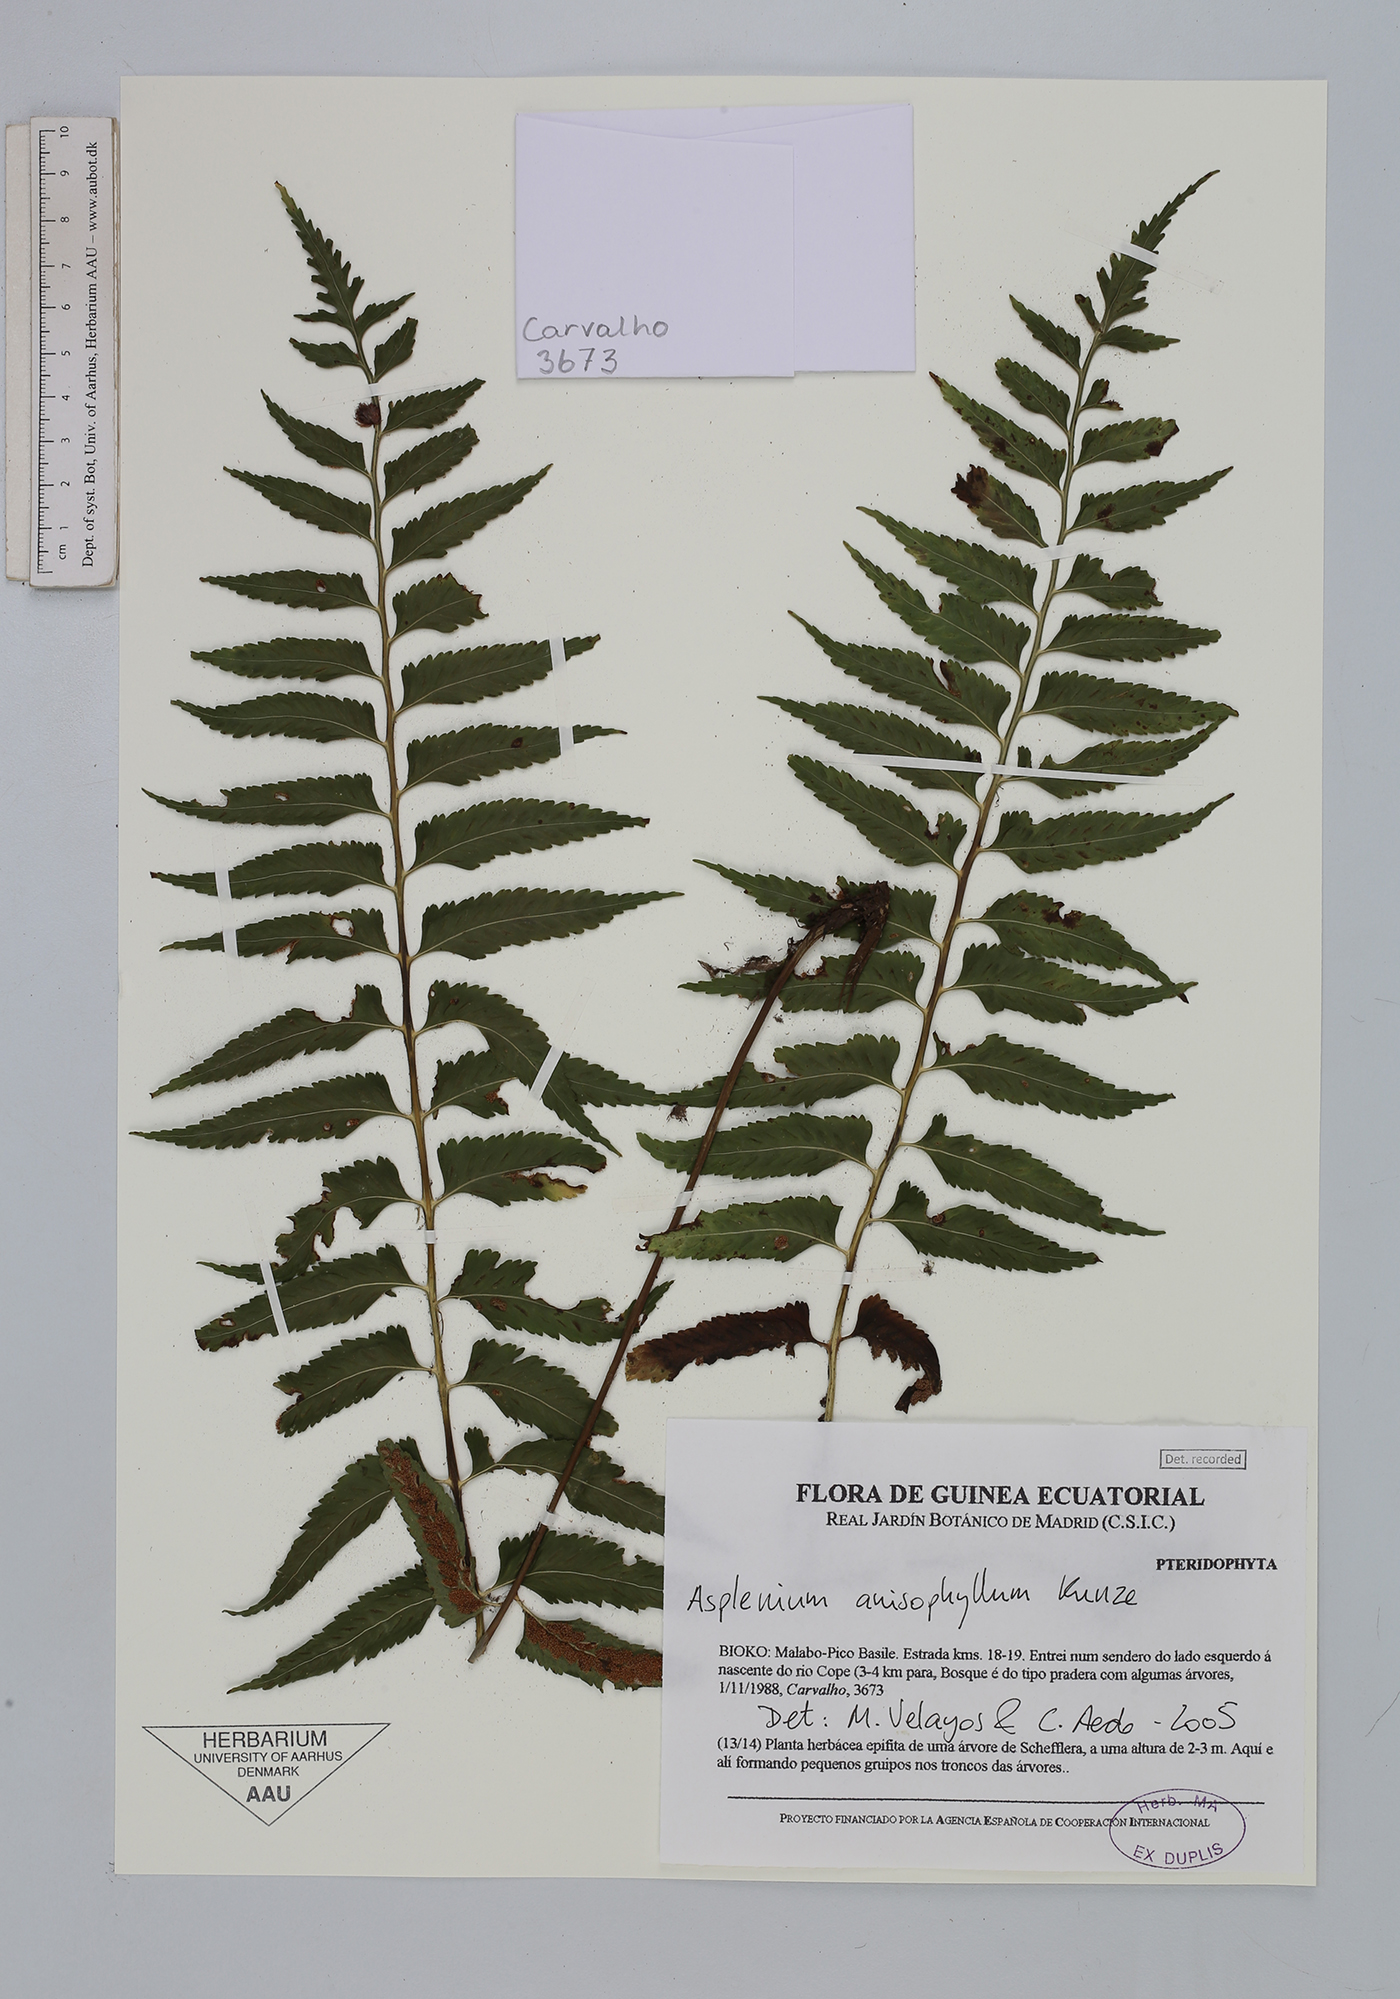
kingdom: Plantae
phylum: Tracheophyta
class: Polypodiopsida
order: Polypodiales
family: Aspleniaceae
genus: Asplenium
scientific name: Asplenium anisophyllum
